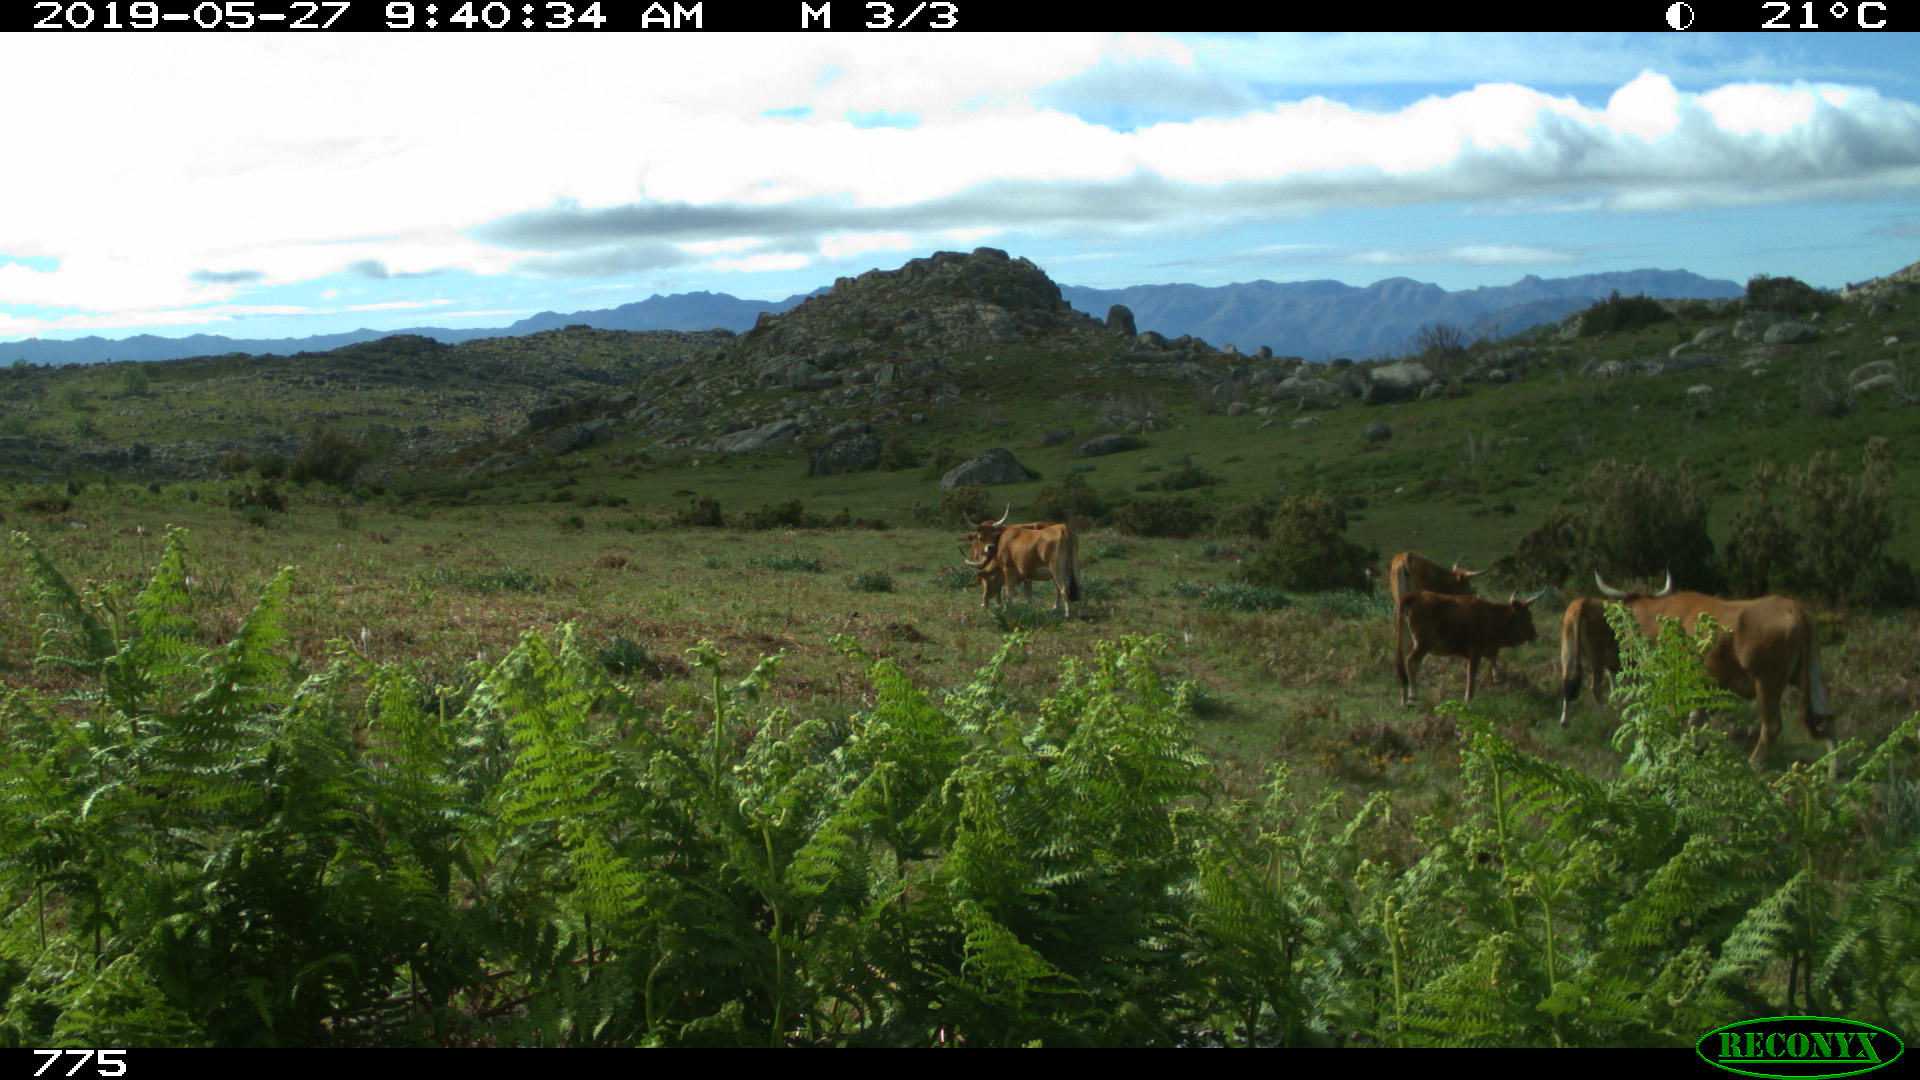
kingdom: Animalia
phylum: Chordata
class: Mammalia
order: Artiodactyla
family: Bovidae
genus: Bos
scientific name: Bos taurus
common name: Domesticated cattle
